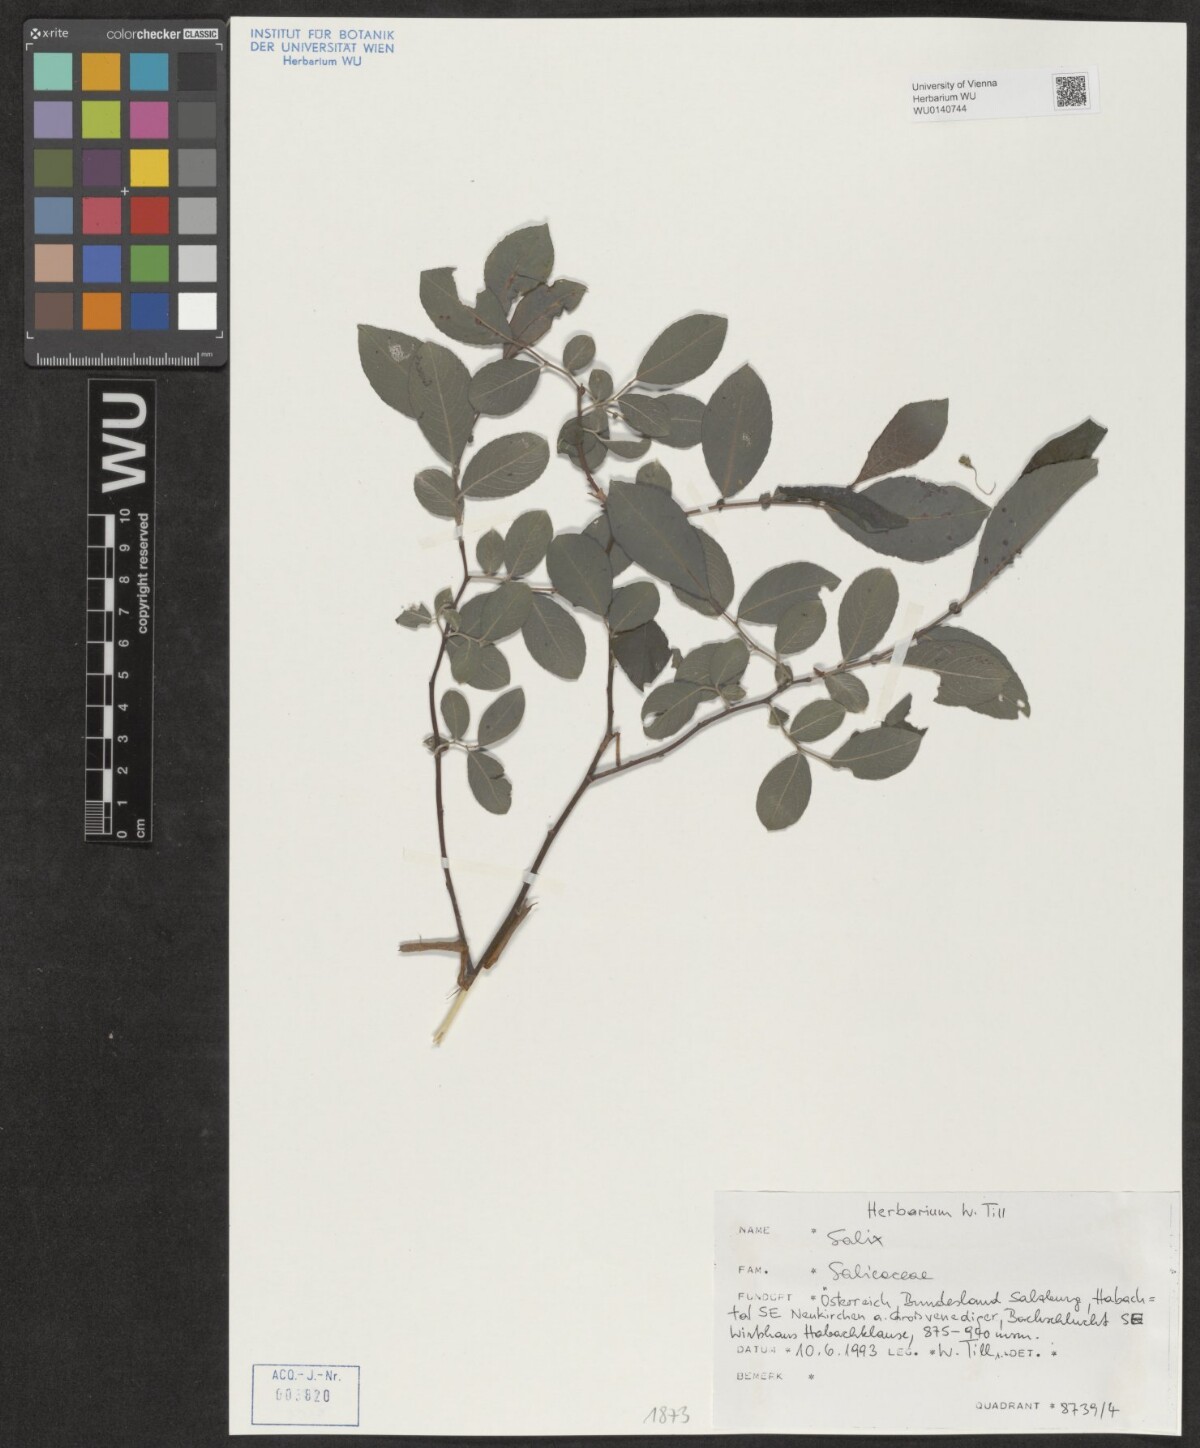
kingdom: Plantae
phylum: Tracheophyta
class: Magnoliopsida
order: Malpighiales
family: Salicaceae
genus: Salix
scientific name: Salix
